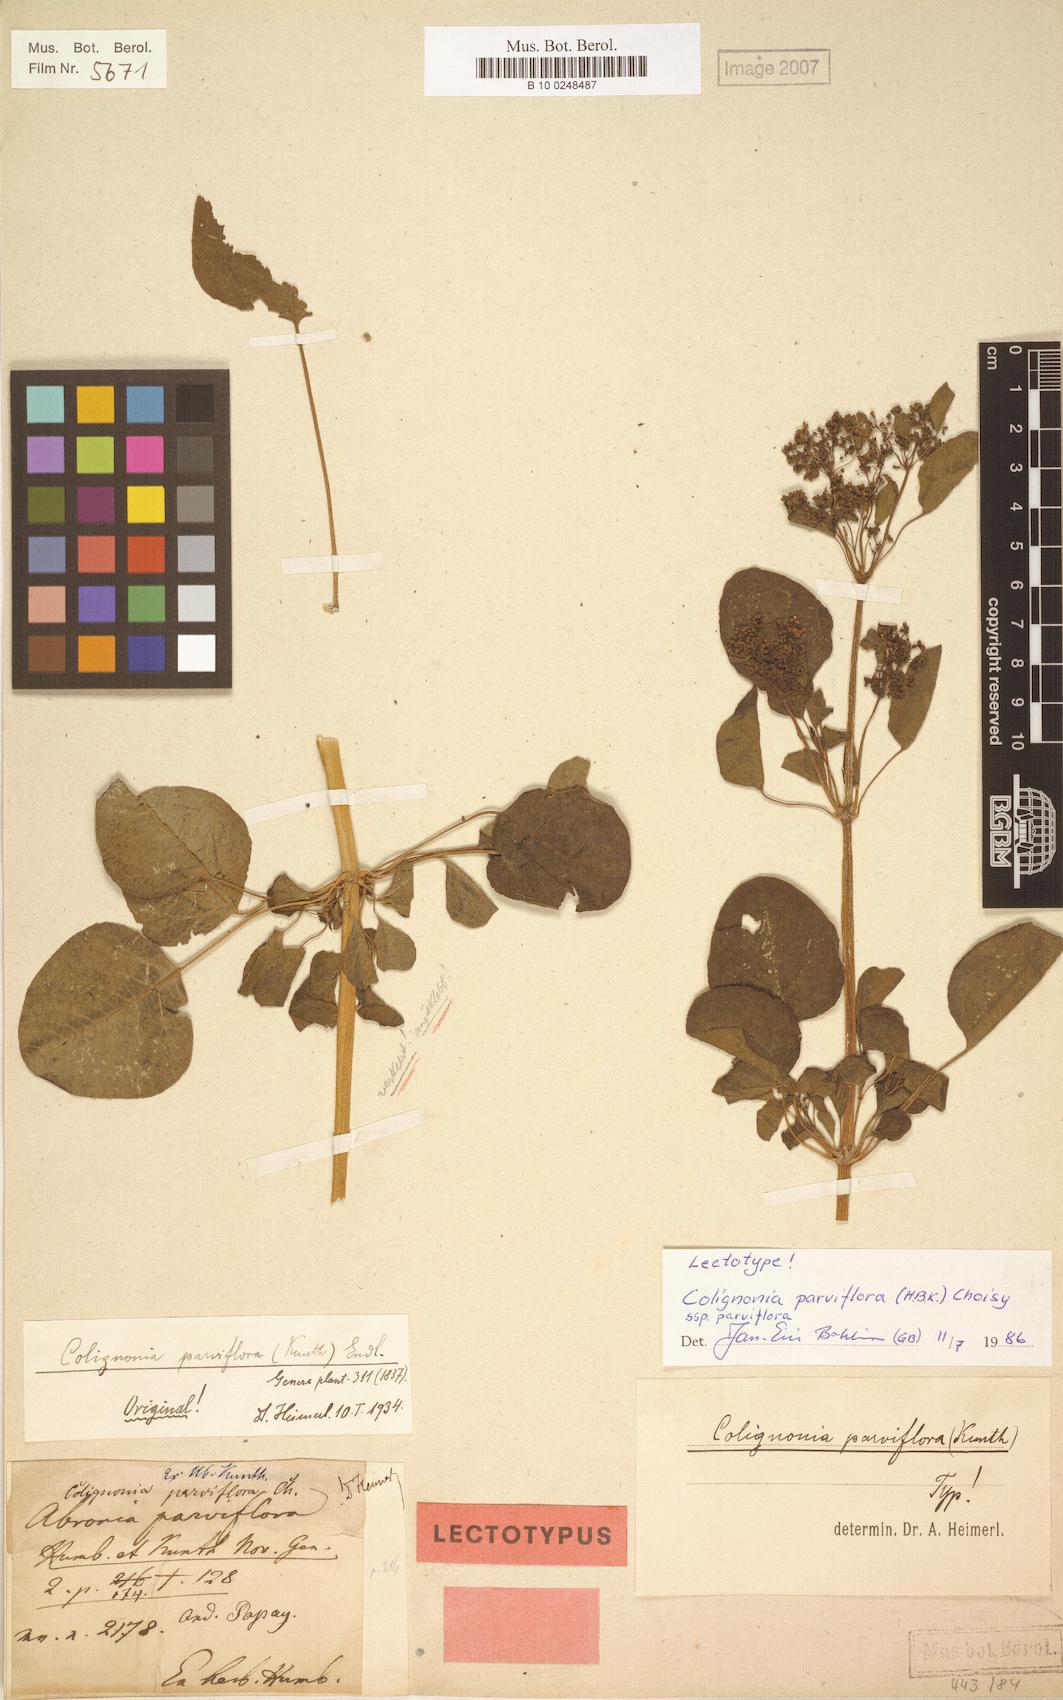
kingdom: Plantae
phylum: Tracheophyta
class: Magnoliopsida
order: Caryophyllales
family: Nyctaginaceae
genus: Colignonia
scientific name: Colignonia parviflora
